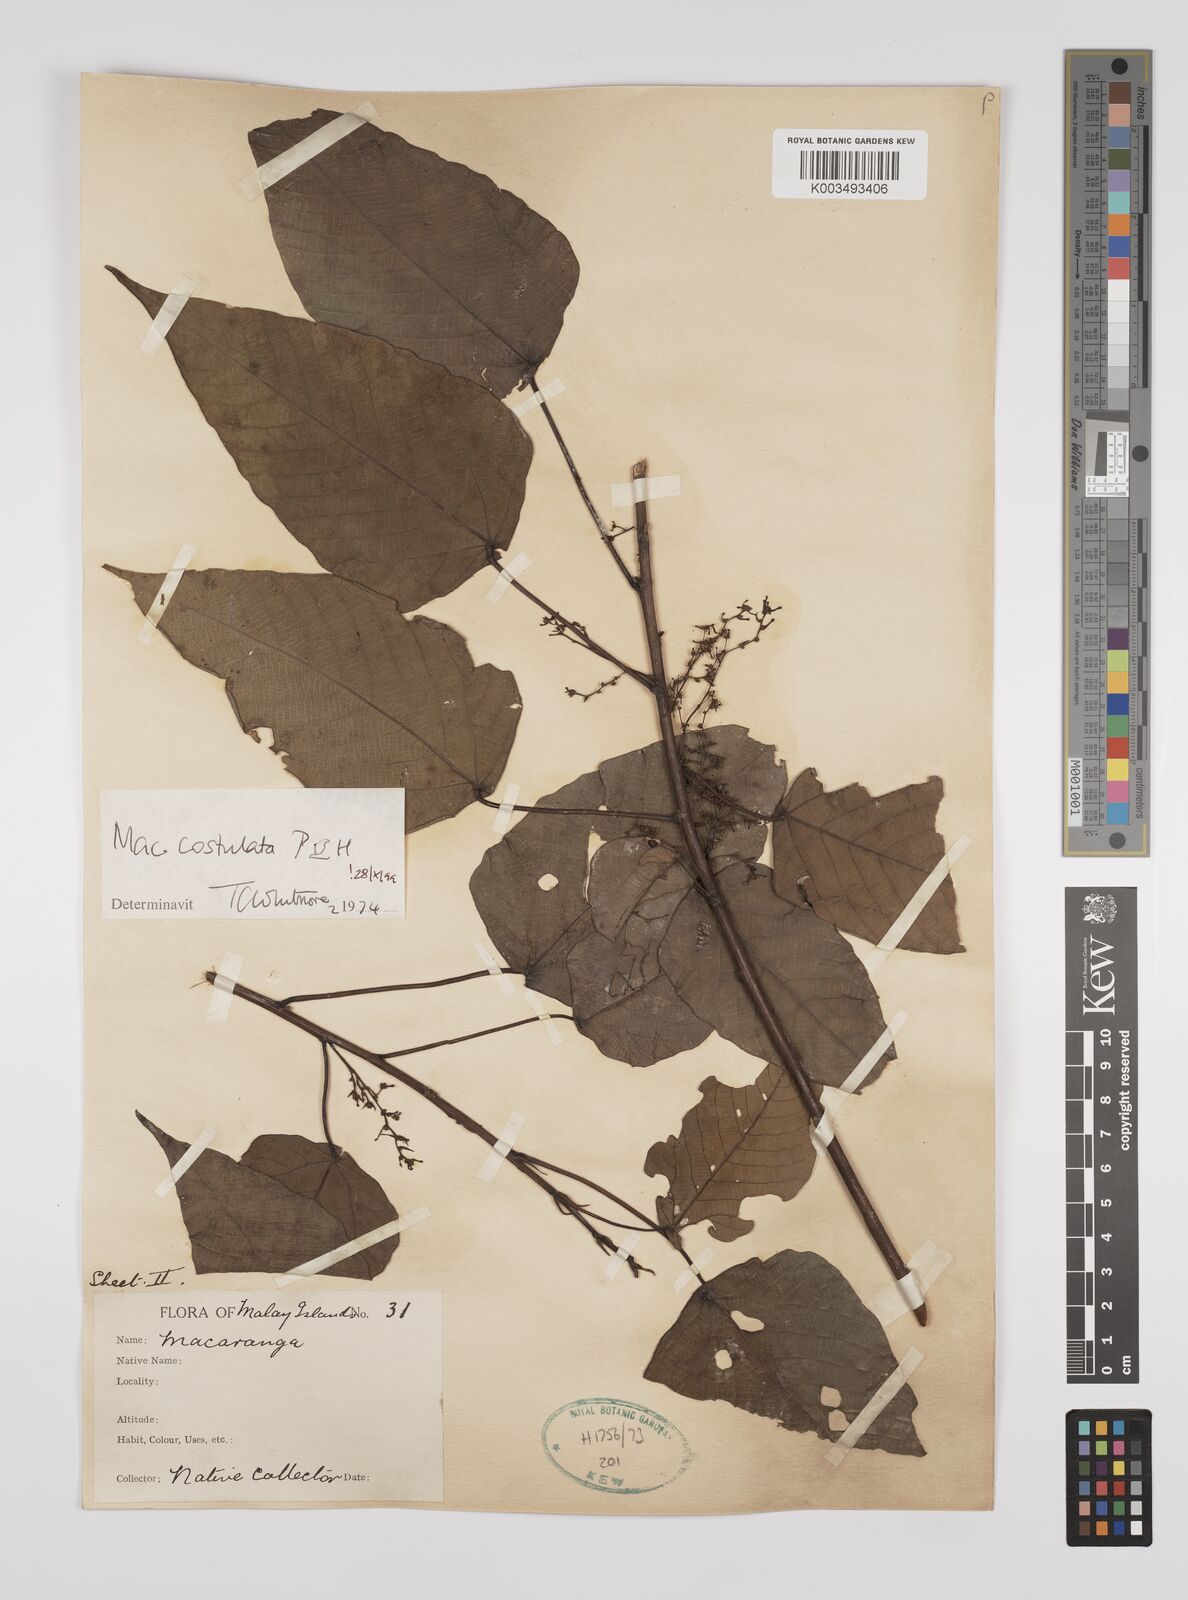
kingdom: Plantae
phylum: Tracheophyta
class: Magnoliopsida
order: Malpighiales
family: Euphorbiaceae
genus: Macaranga
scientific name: Macaranga costulata
